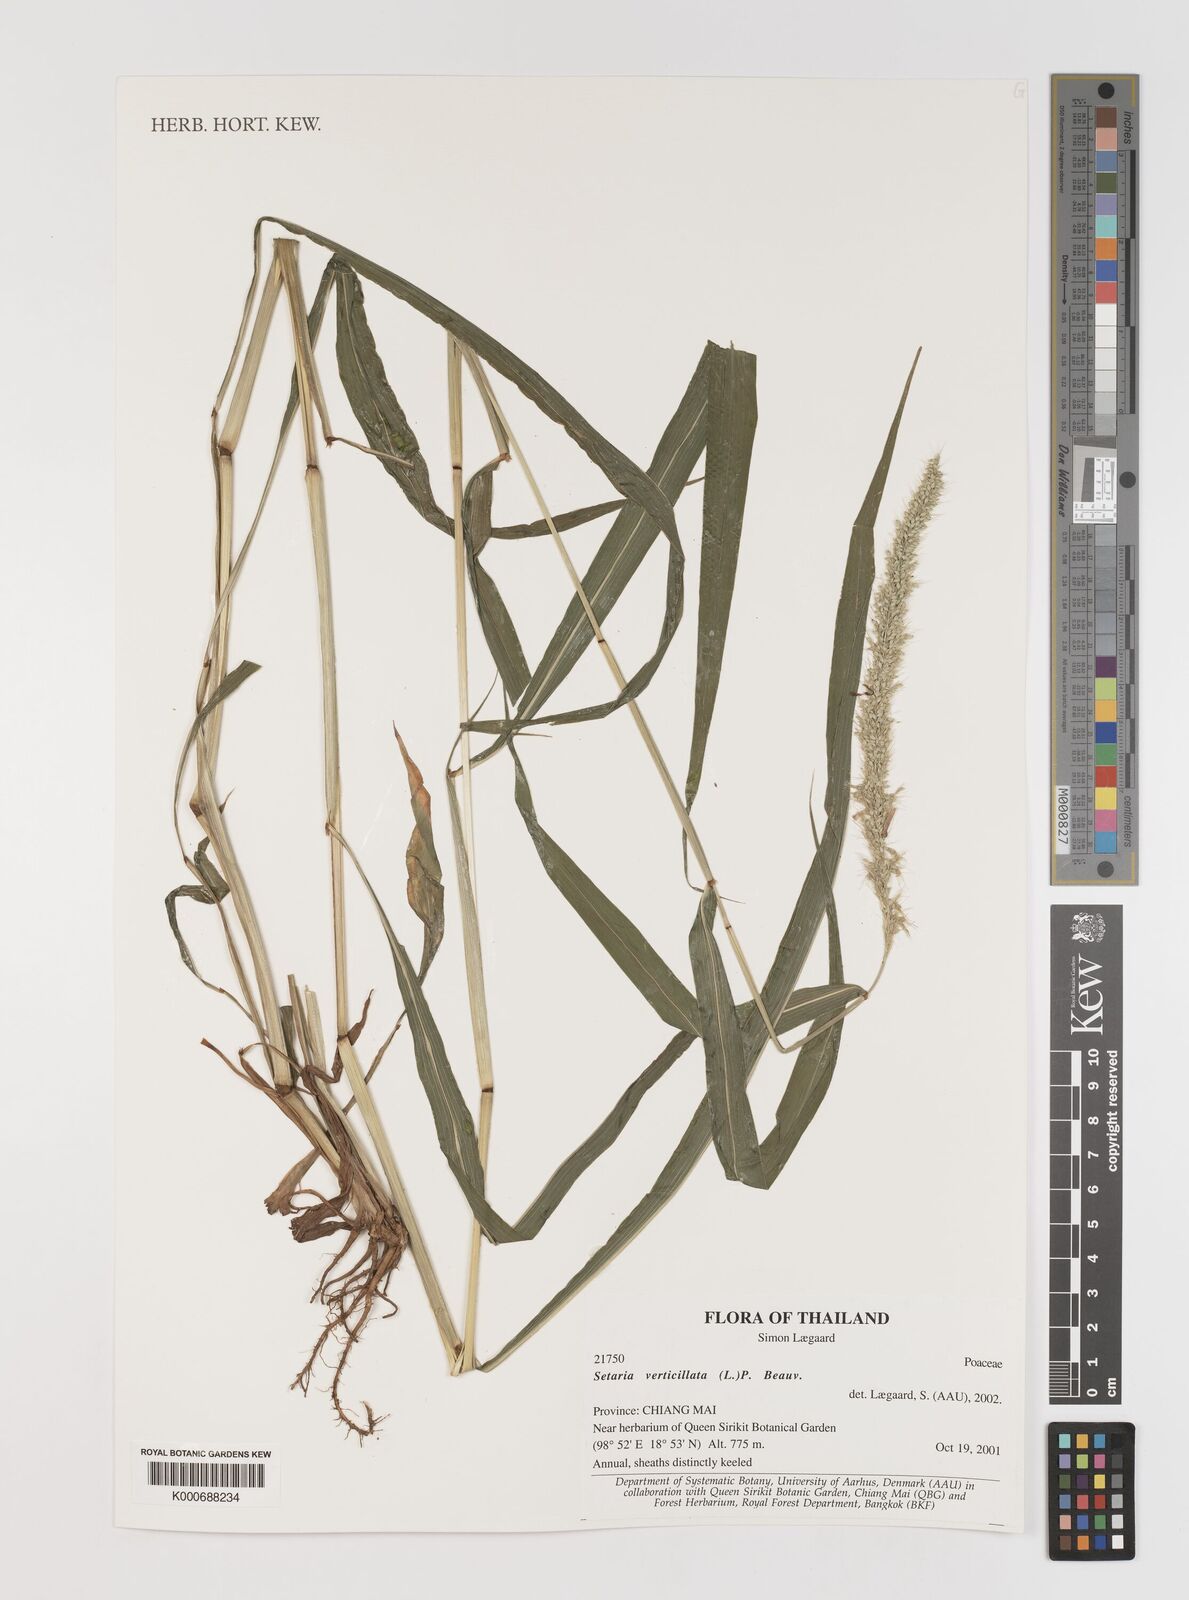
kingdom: Plantae
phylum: Tracheophyta
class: Liliopsida
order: Poales
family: Poaceae
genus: Setaria
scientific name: Setaria verticillata
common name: Hooked bristlegrass
